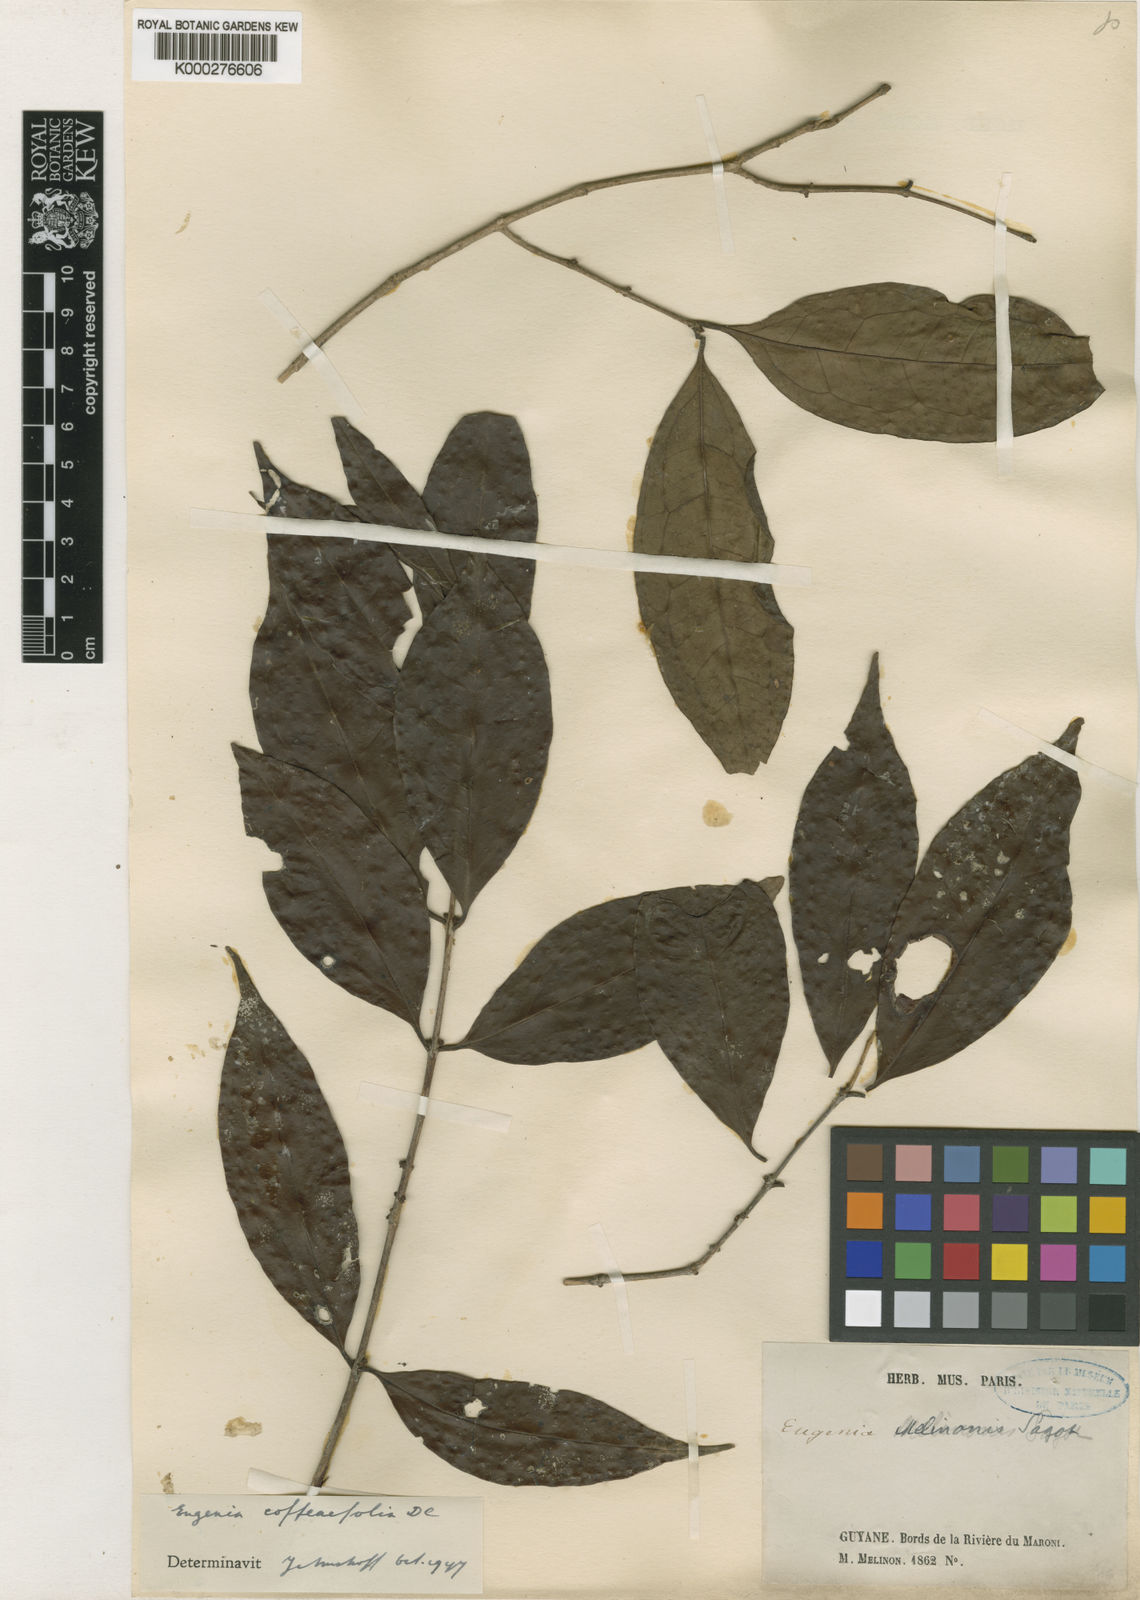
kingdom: Plantae
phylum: Tracheophyta
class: Magnoliopsida
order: Myrtales
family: Myrtaceae
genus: Eugenia
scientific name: Eugenia coffeifolia
